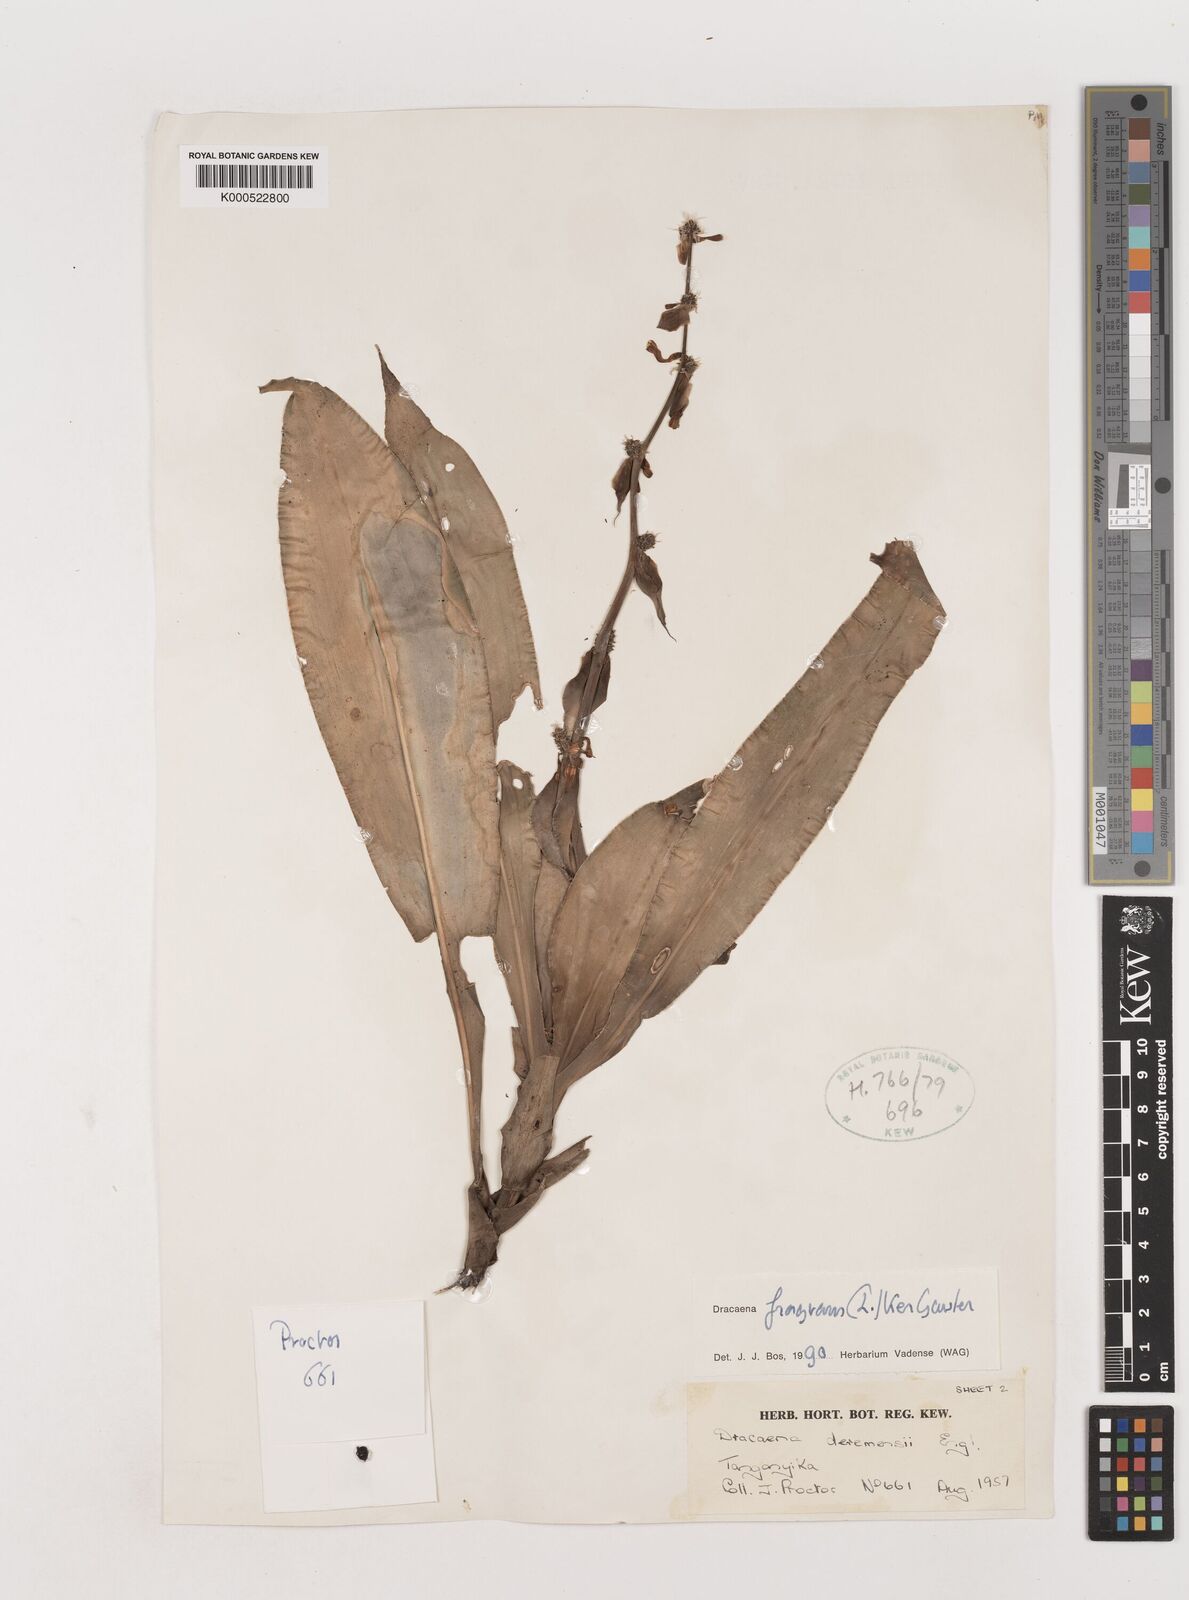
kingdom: Plantae
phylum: Tracheophyta
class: Liliopsida
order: Asparagales
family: Asparagaceae
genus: Dracaena
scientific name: Dracaena fragrans
